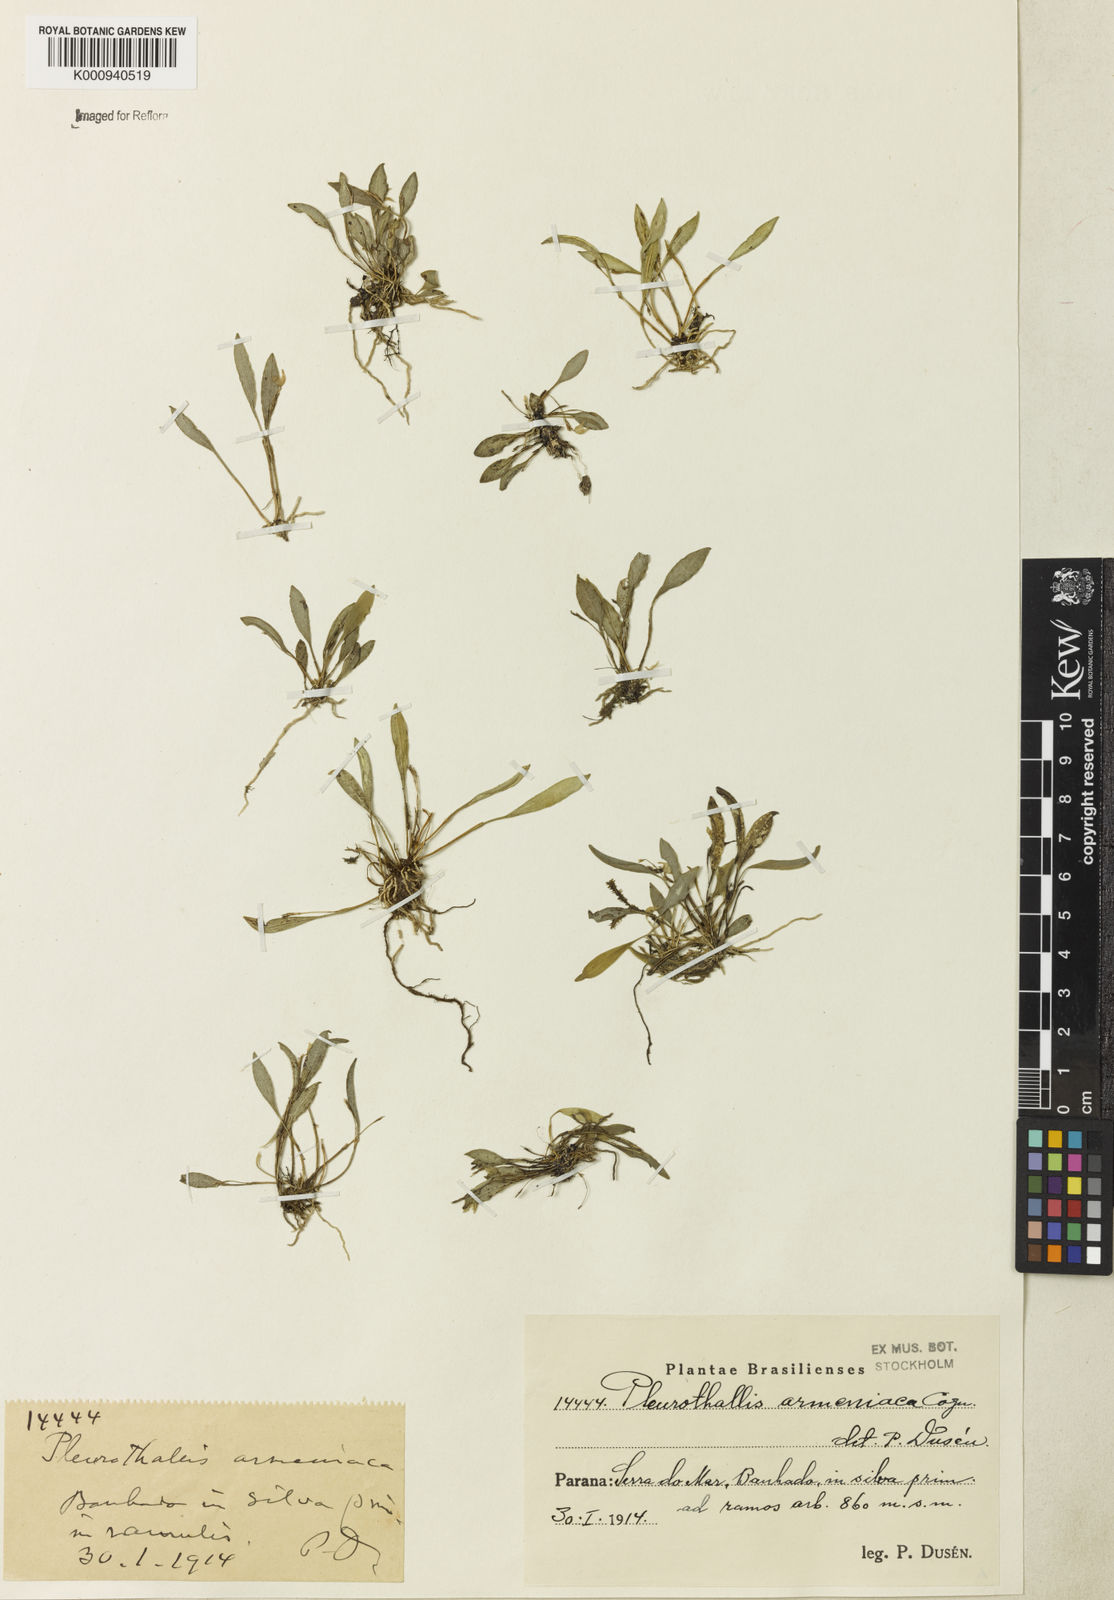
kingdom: Plantae
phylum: Tracheophyta
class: Liliopsida
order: Asparagales
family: Orchidaceae
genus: Pabstiella
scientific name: Pabstiella armeniaca
